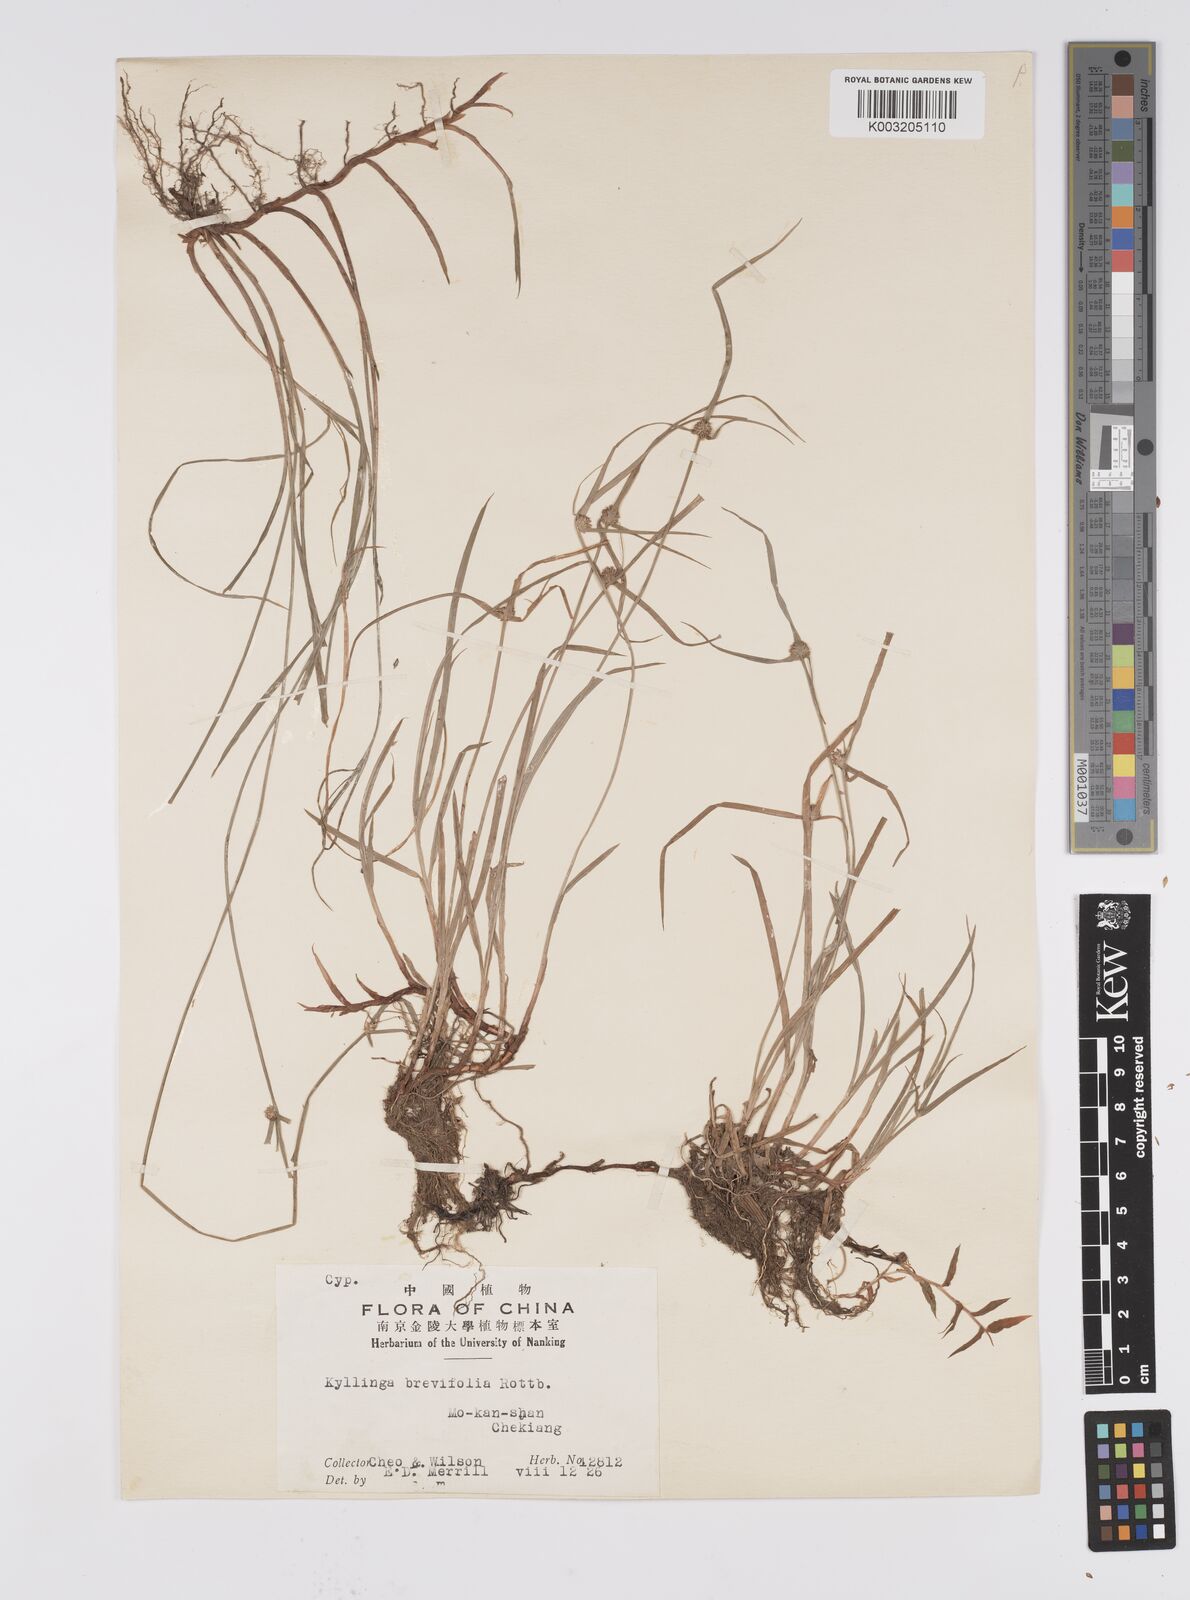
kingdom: Plantae
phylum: Tracheophyta
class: Liliopsida
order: Poales
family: Cyperaceae
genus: Cyperus
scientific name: Cyperus brevifolius
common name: Globe kyllinga
